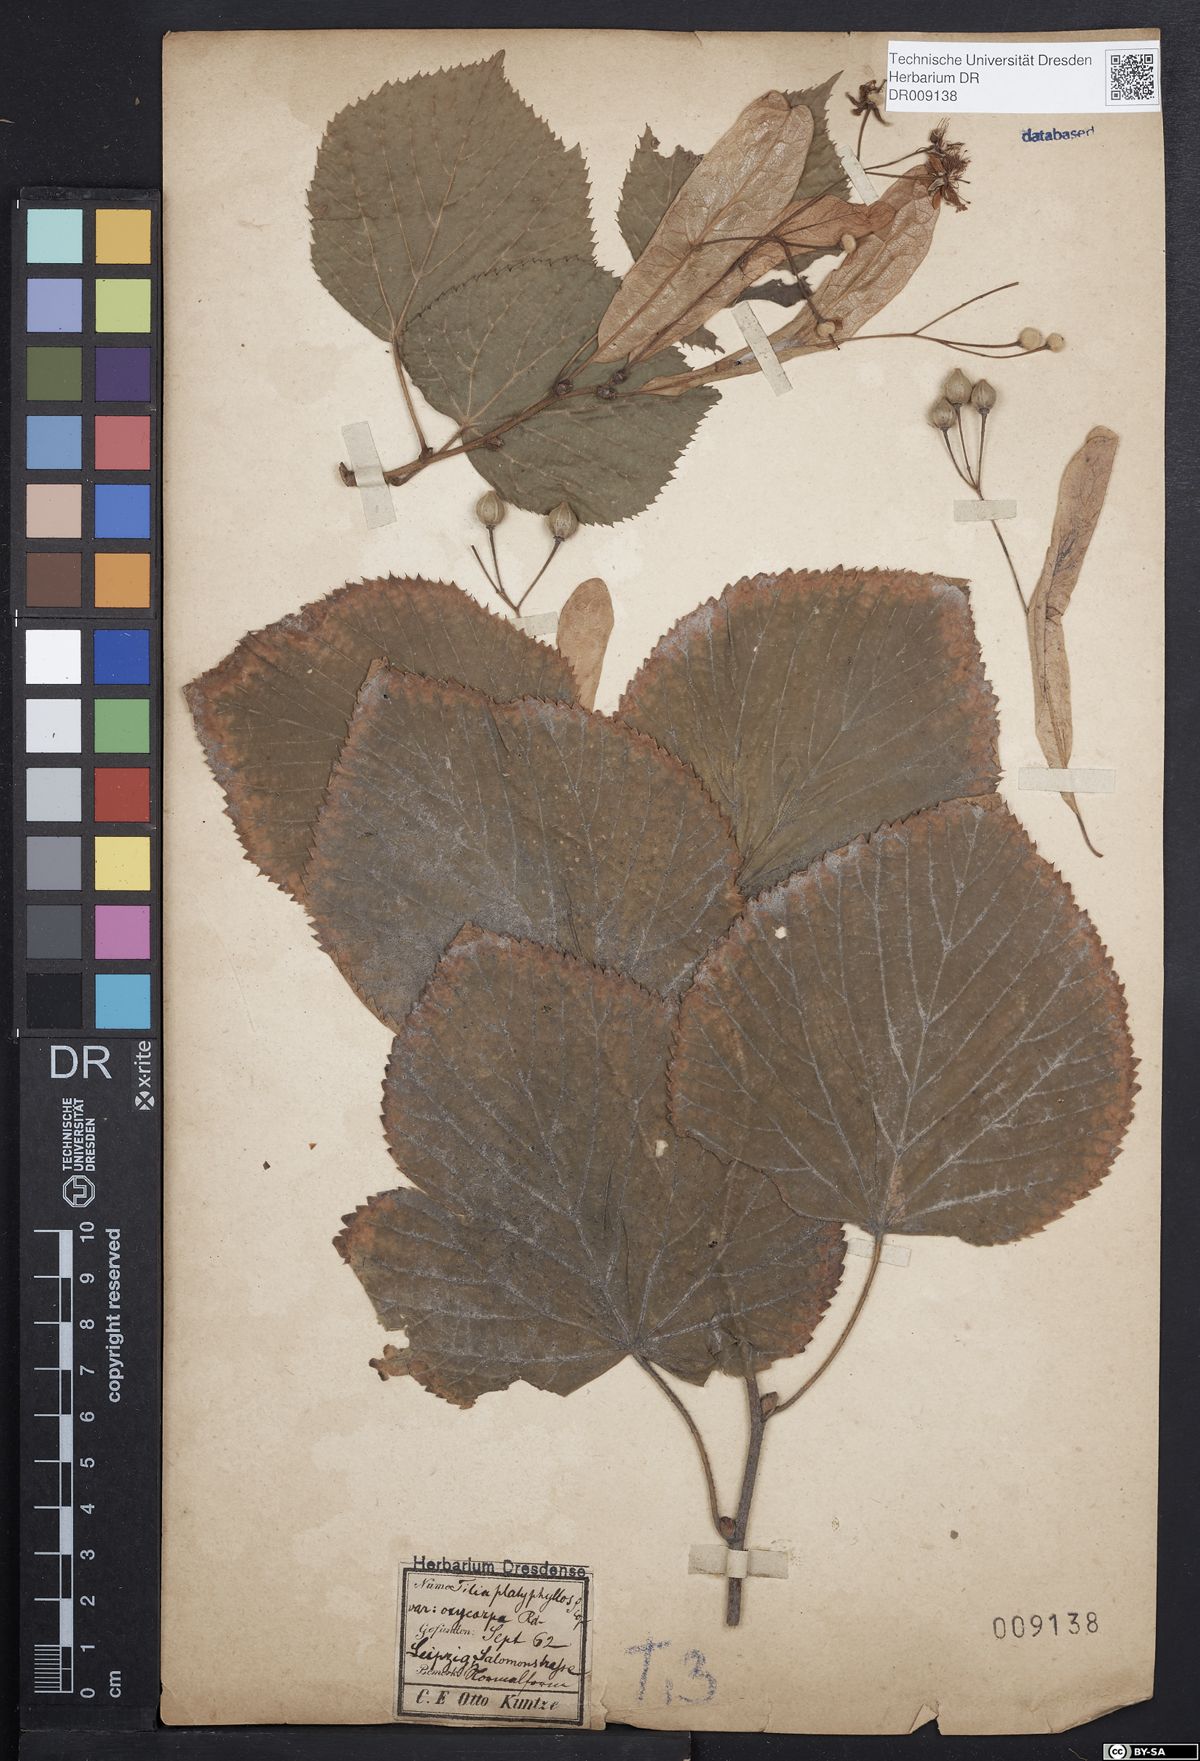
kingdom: Plantae
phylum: Tracheophyta
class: Magnoliopsida
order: Malvales
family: Malvaceae
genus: Tilia
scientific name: Tilia platyphyllos
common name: Large-leaved lime
